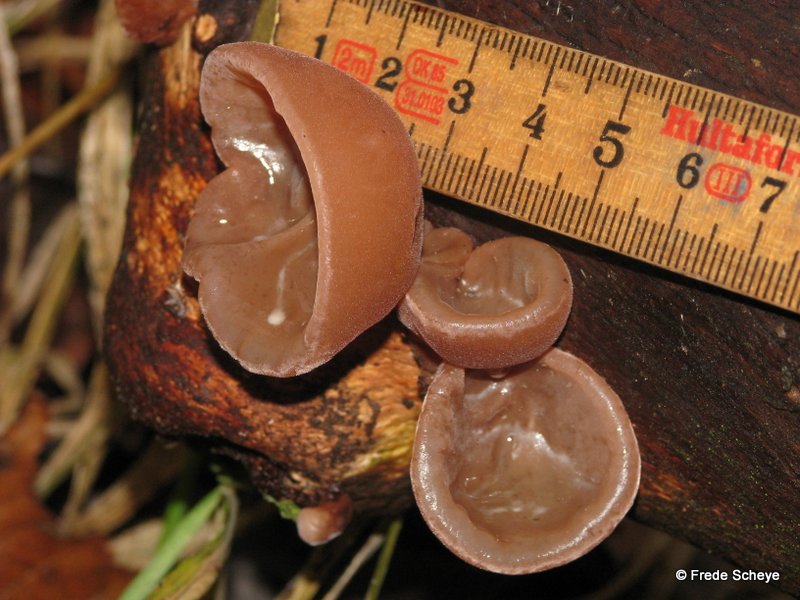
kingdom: Fungi
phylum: Basidiomycota
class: Agaricomycetes
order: Auriculariales
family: Auriculariaceae
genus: Auricularia
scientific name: Auricularia auricula-judae
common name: almindelig judasøre
